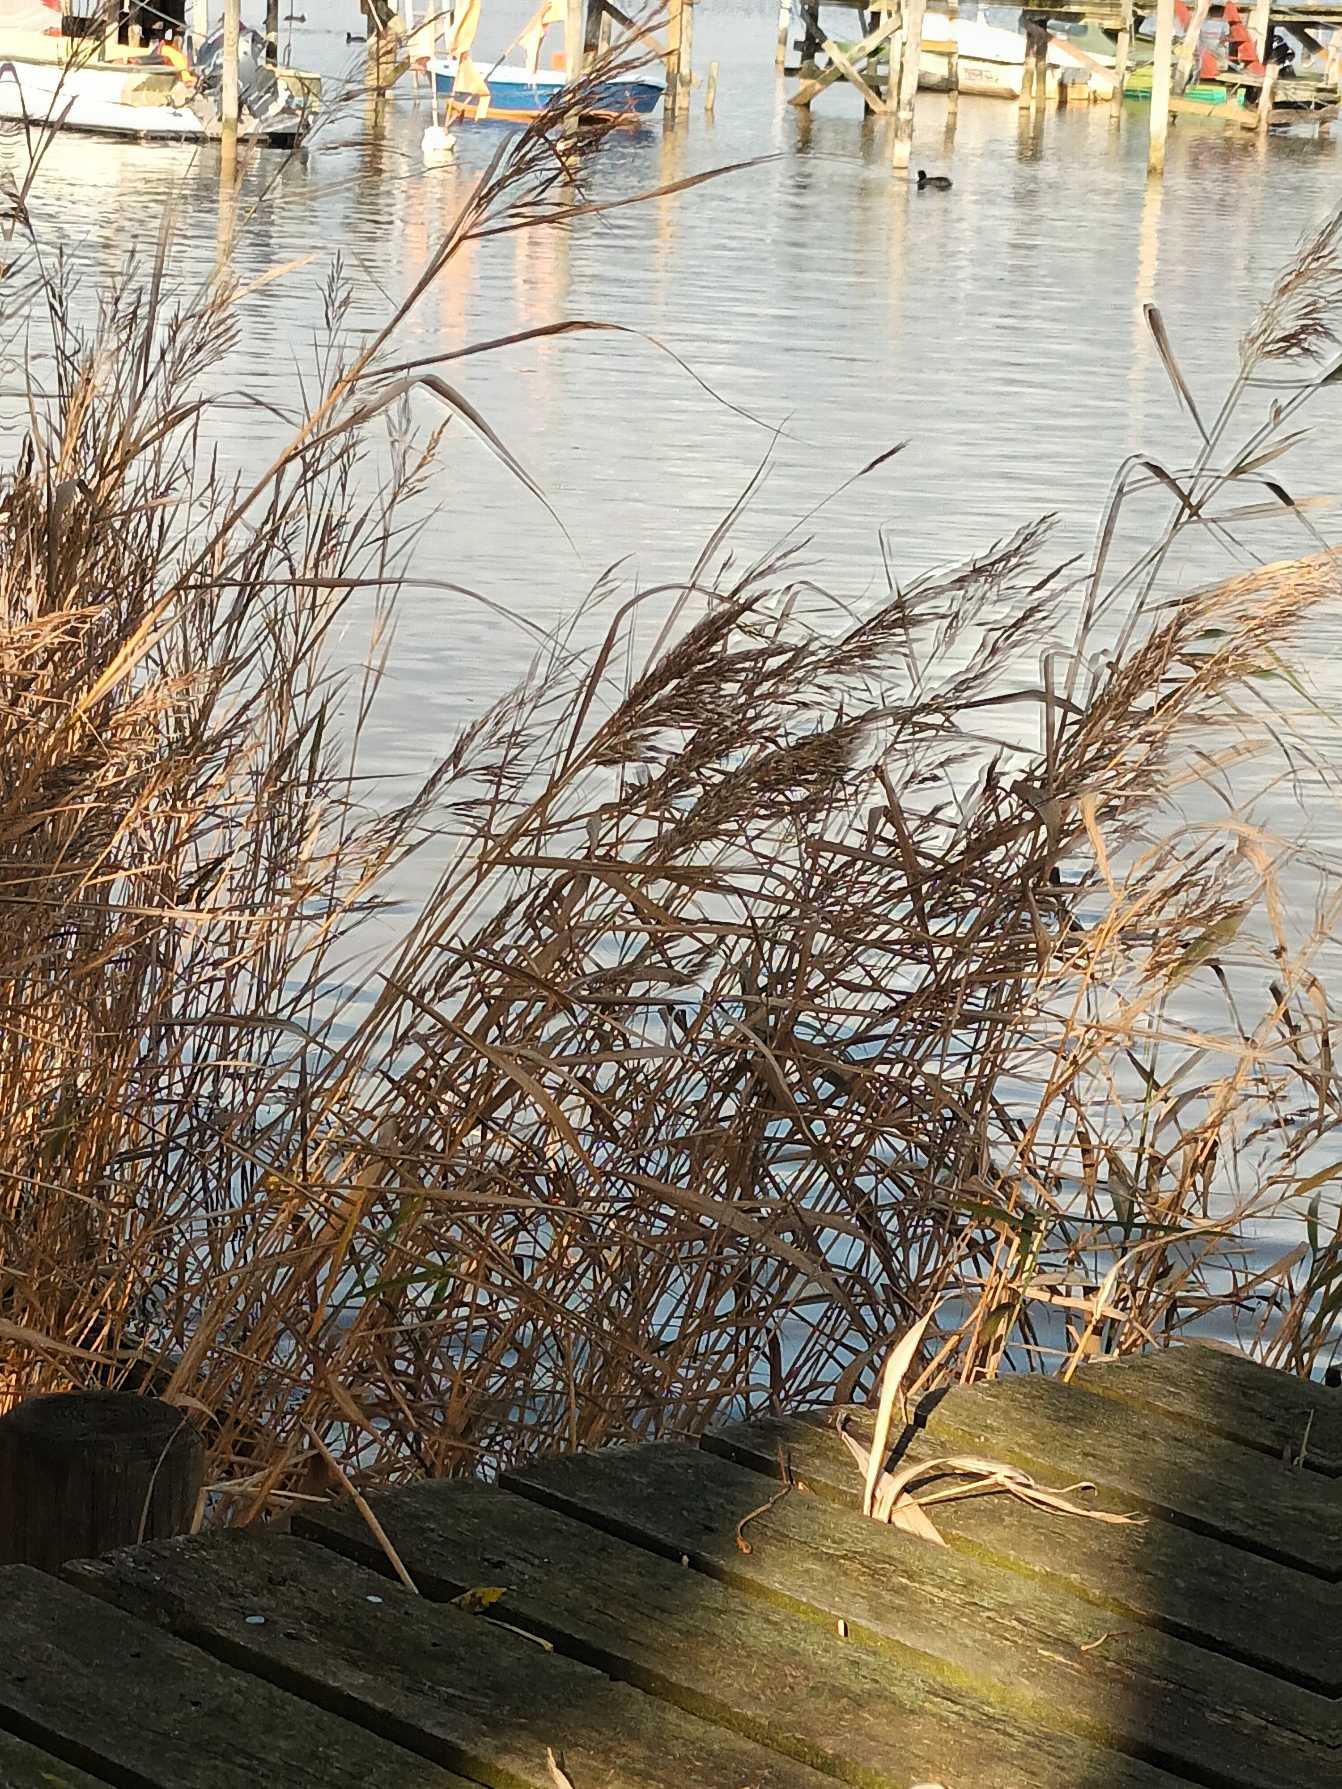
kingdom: Plantae
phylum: Tracheophyta
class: Liliopsida
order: Poales
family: Poaceae
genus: Phragmites
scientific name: Phragmites australis
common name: Tagrør
